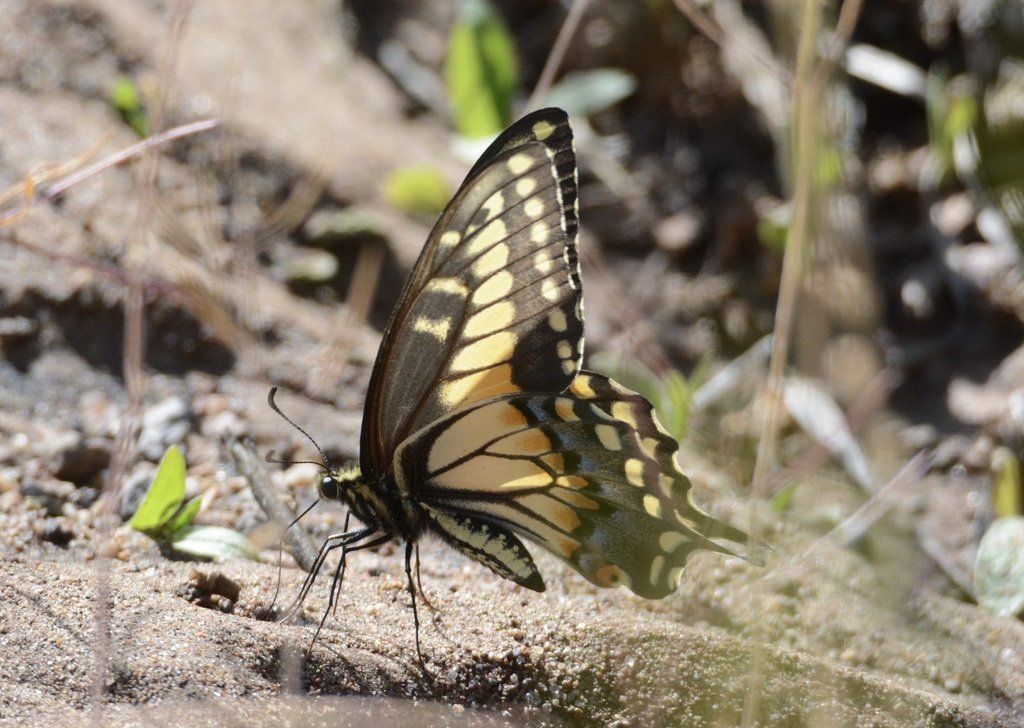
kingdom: Animalia
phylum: Arthropoda
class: Insecta
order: Lepidoptera
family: Papilionidae
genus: Papilio
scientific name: Papilio machaon
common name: Old World Swallowtail
